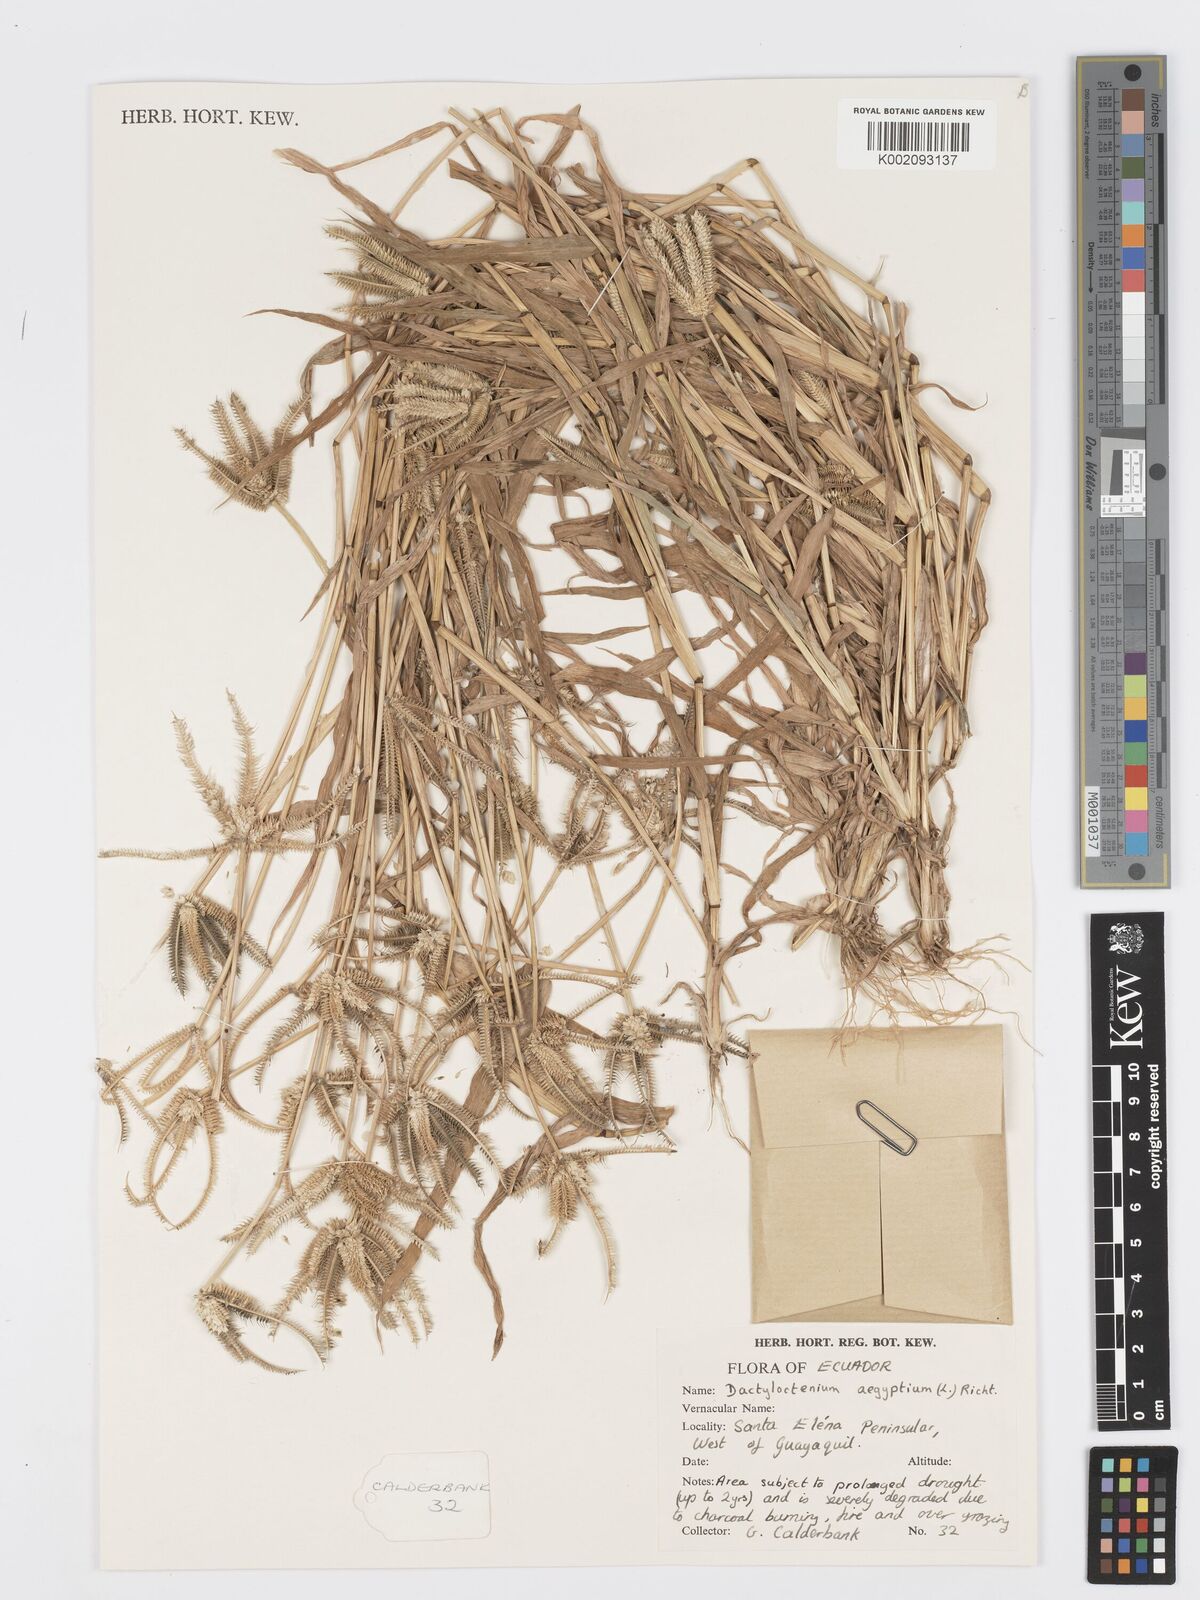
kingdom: Plantae
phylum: Tracheophyta
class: Liliopsida
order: Poales
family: Poaceae
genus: Dactyloctenium
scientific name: Dactyloctenium aegyptium
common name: Egyptian grass
